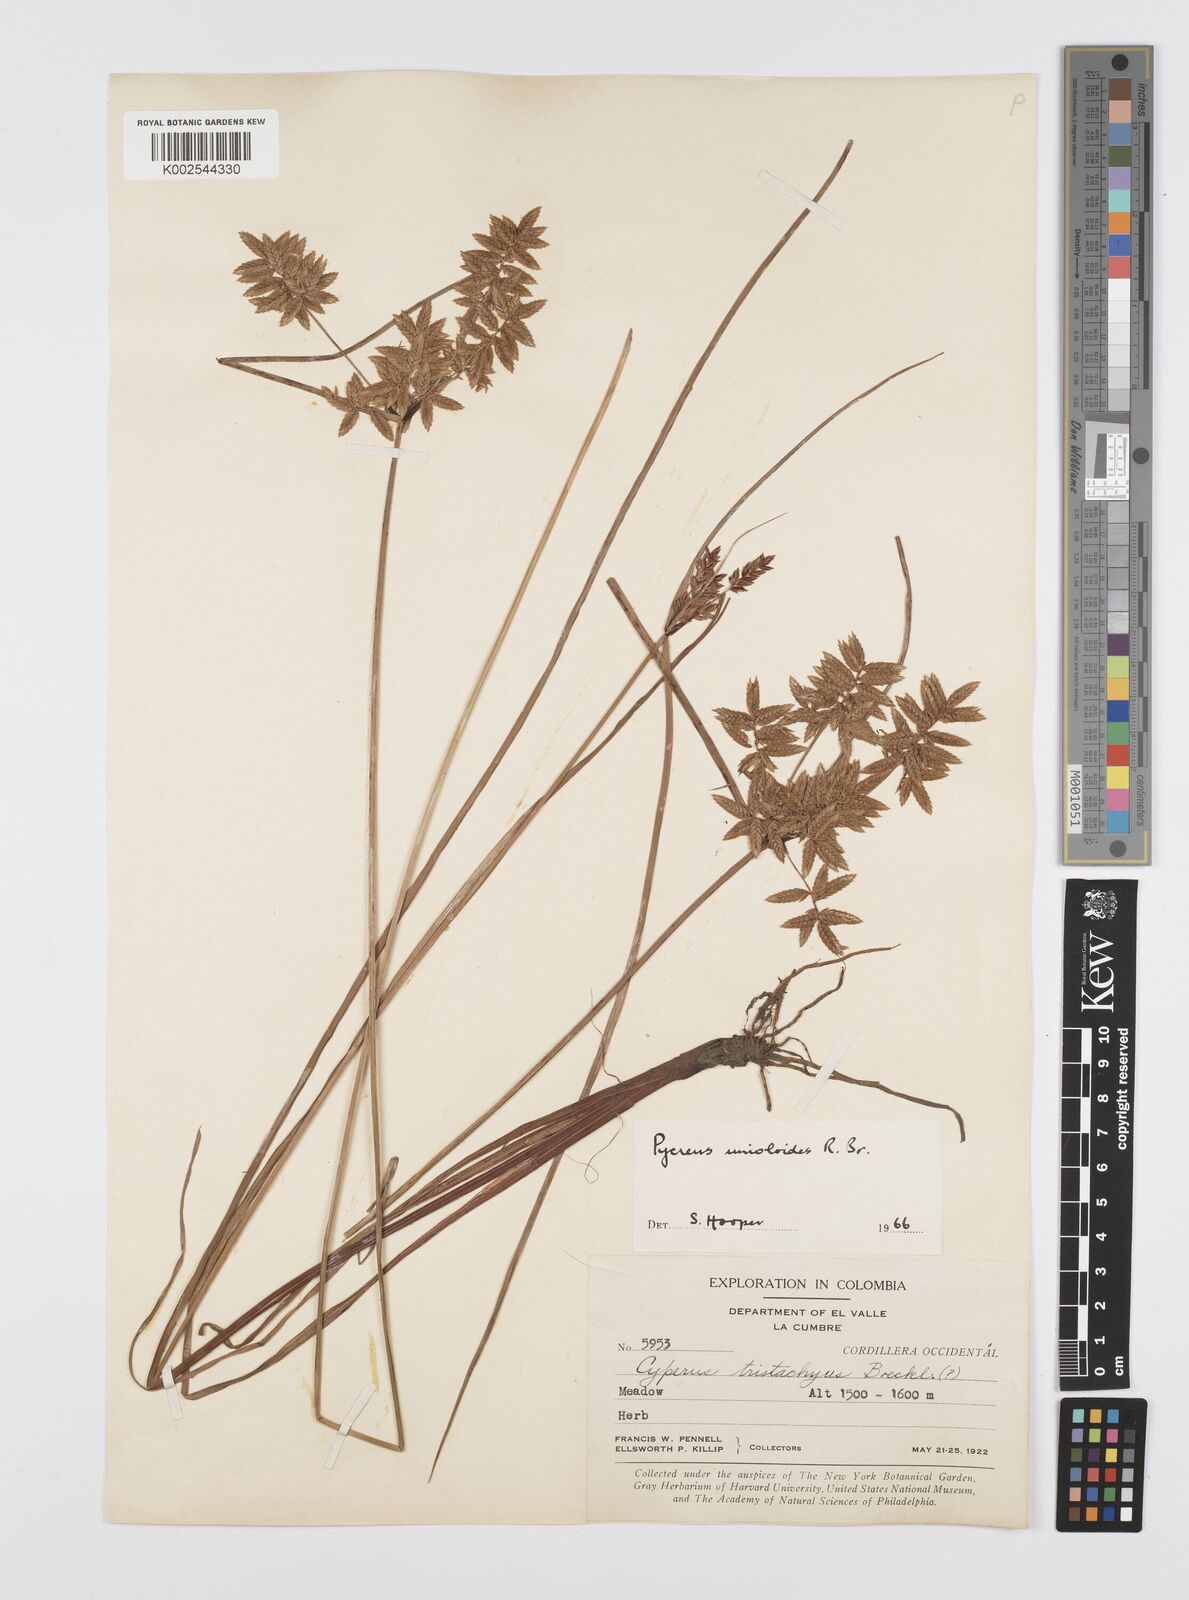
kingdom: Plantae
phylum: Tracheophyta
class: Liliopsida
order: Poales
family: Cyperaceae
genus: Cyperus
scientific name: Cyperus unioloides
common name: Uniola flatsedge
